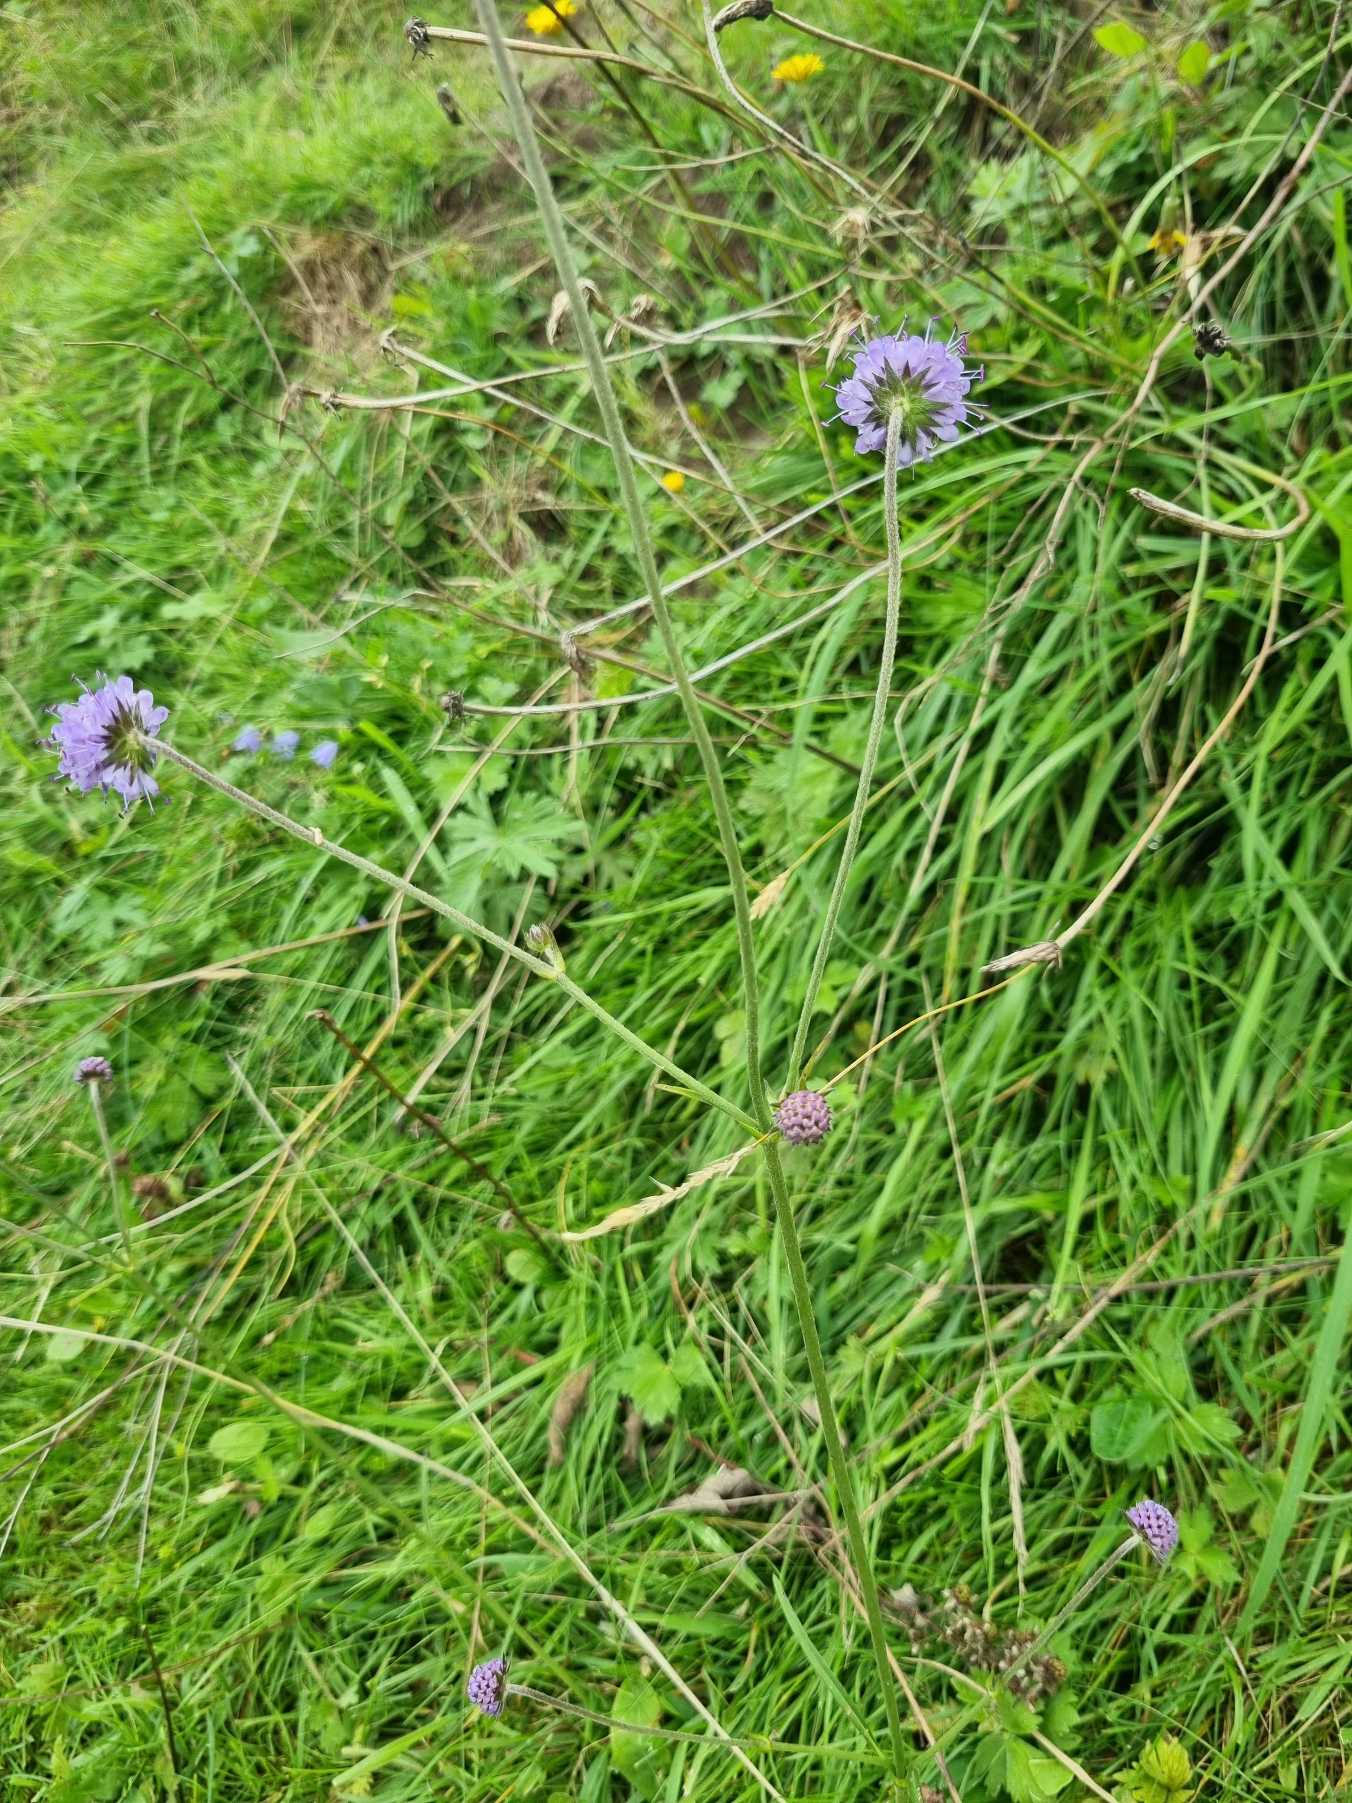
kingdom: Plantae
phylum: Tracheophyta
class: Magnoliopsida
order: Dipsacales
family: Caprifoliaceae
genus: Succisa
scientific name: Succisa pratensis
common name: Djævelsbid
